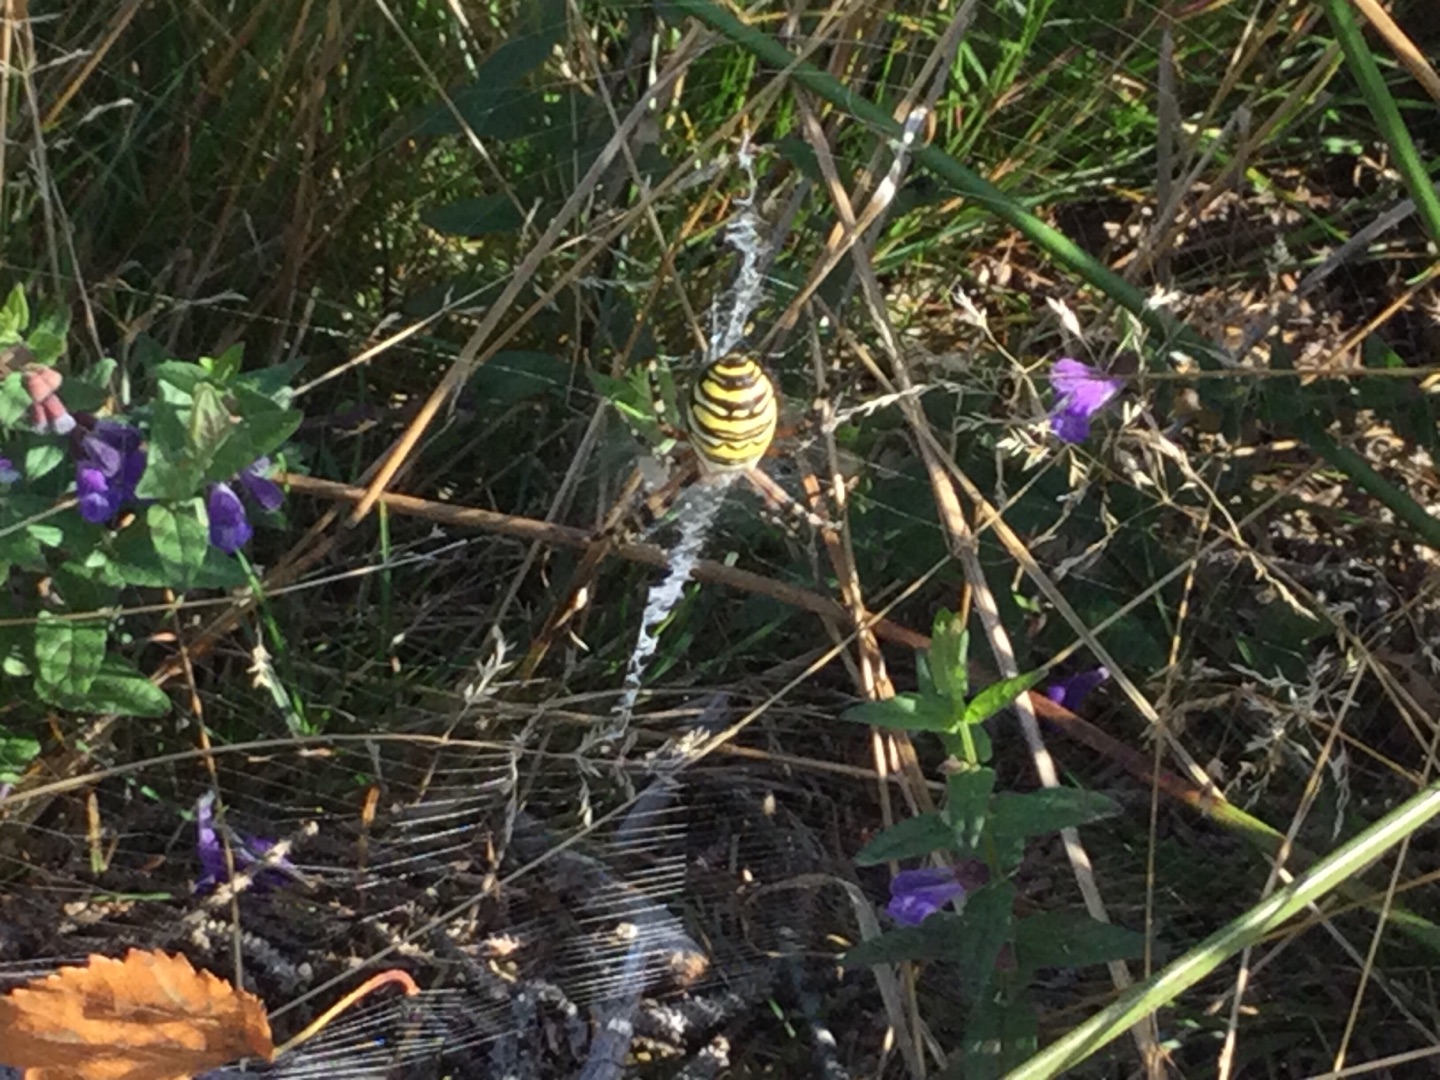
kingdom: Animalia
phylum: Arthropoda
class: Arachnida
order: Araneae
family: Araneidae
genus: Argiope
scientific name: Argiope bruennichi
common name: Hvepseedderkop
